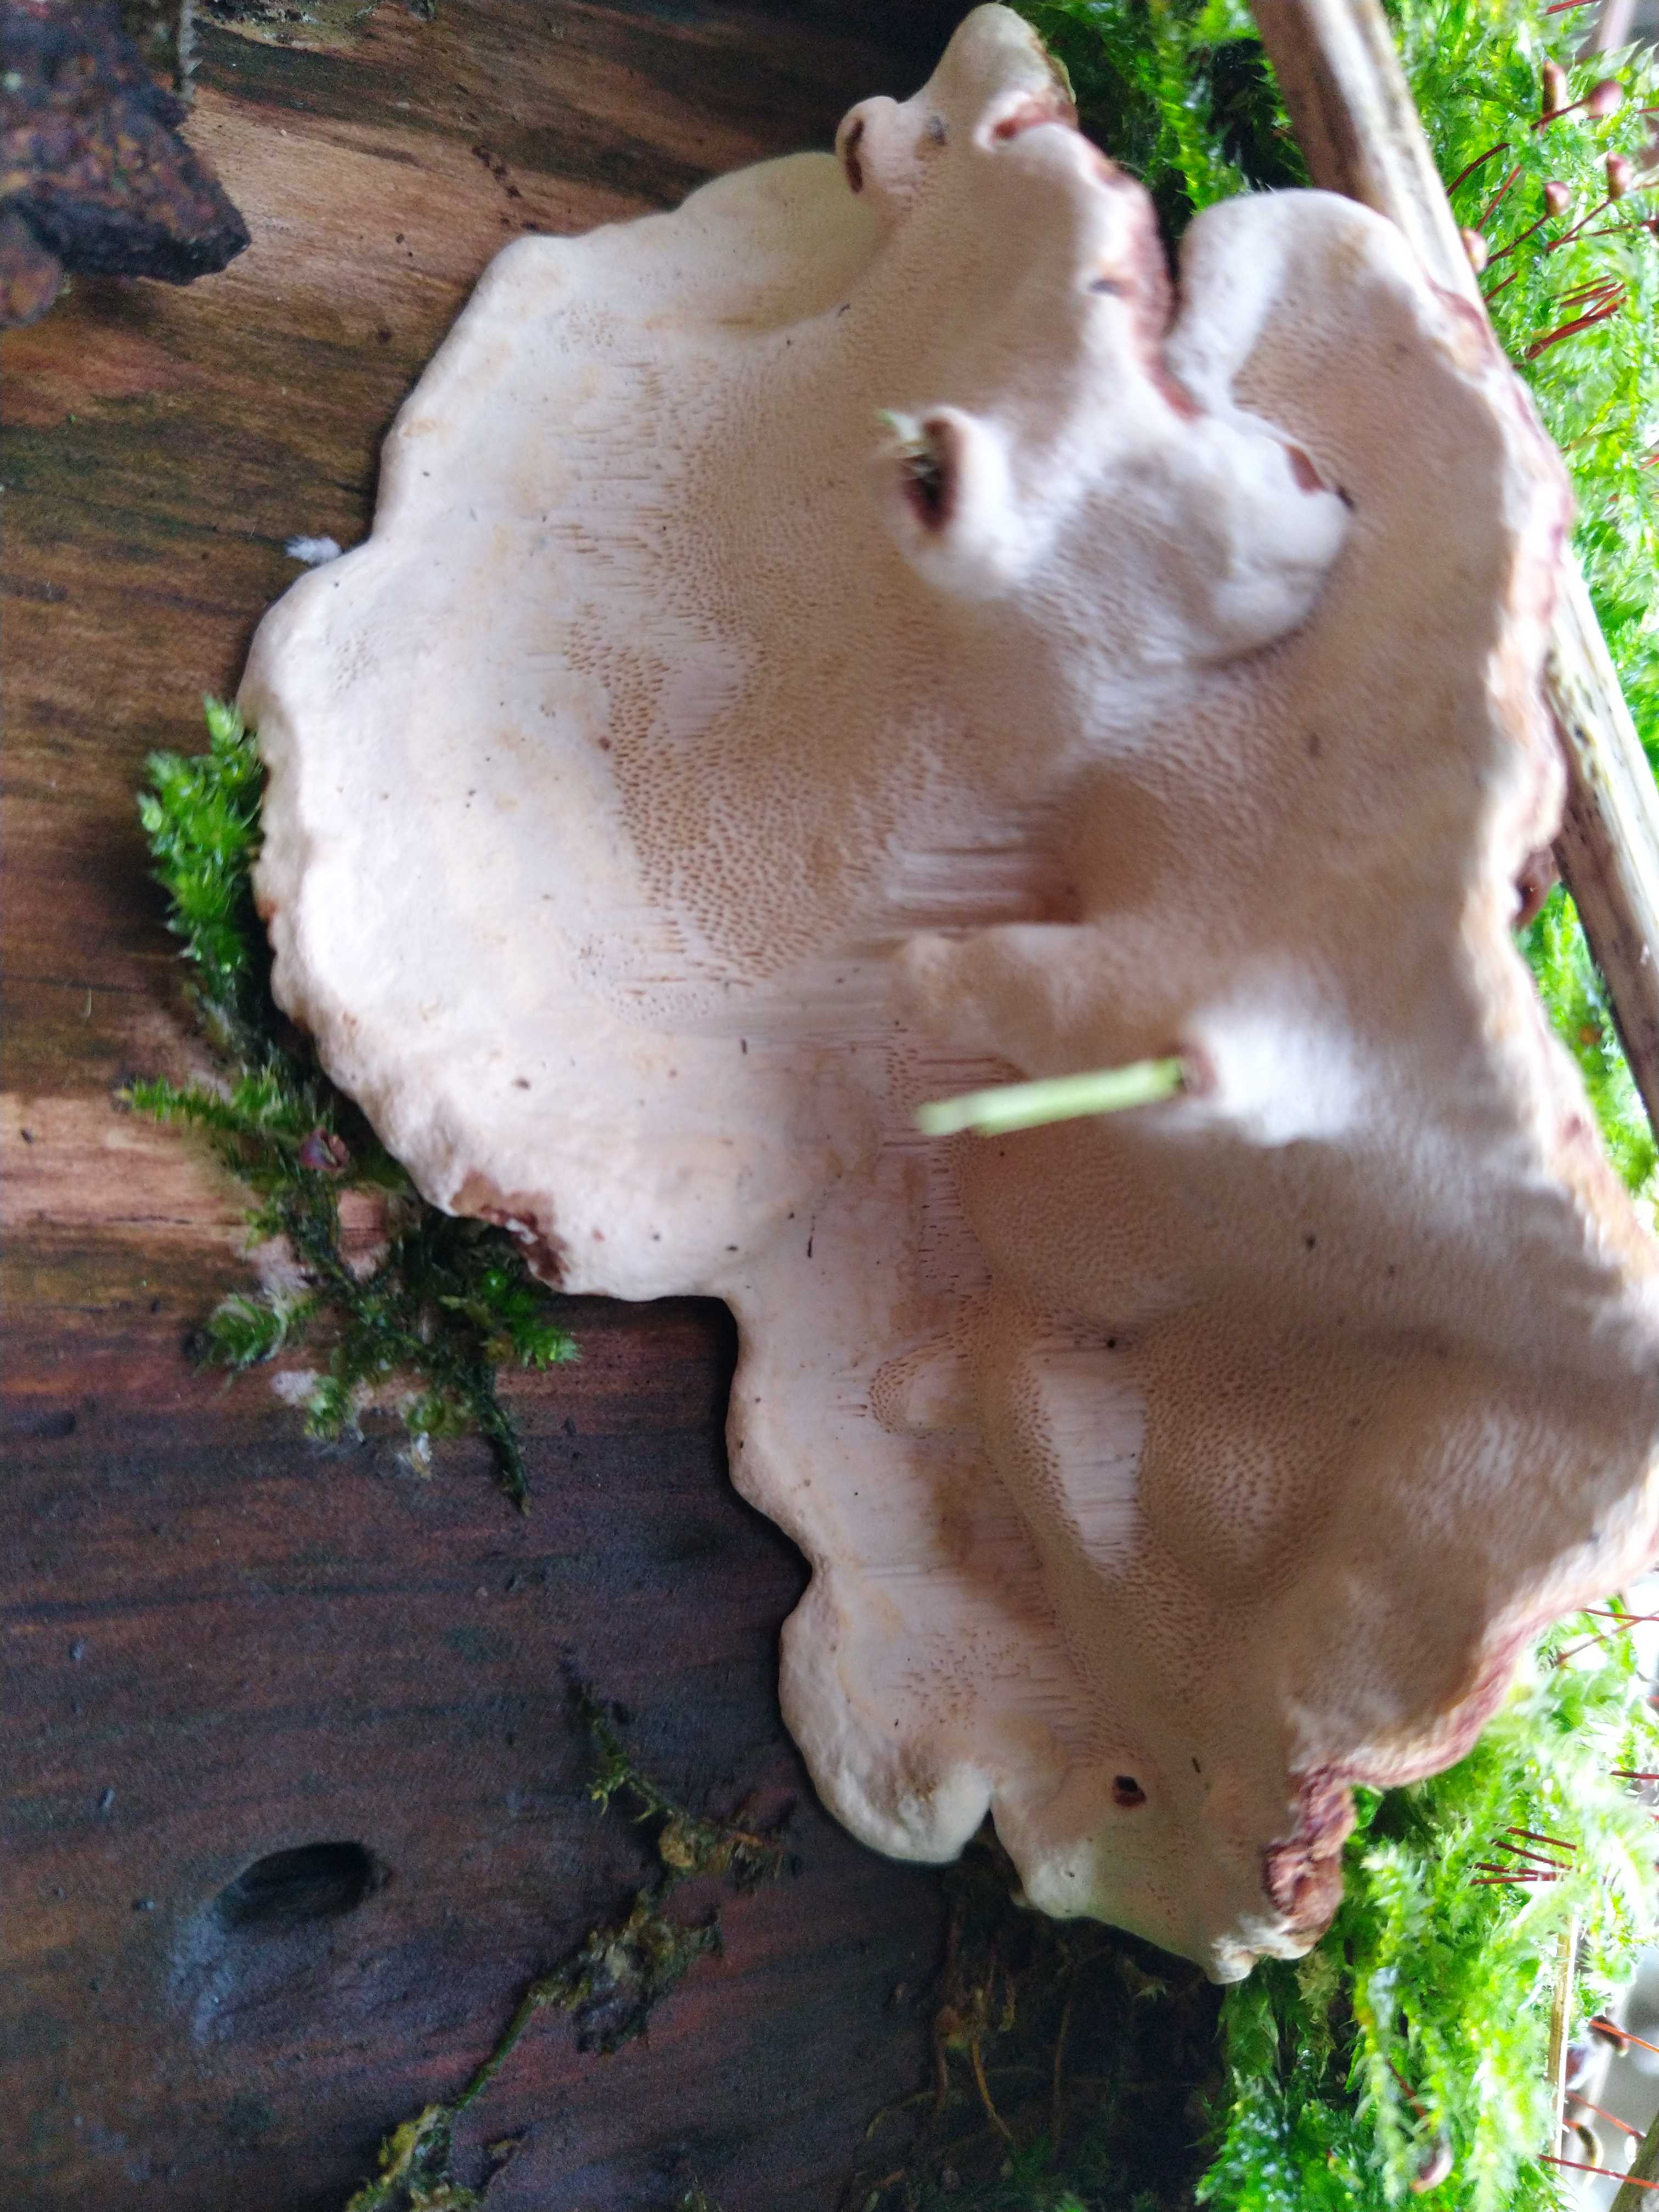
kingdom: Fungi
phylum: Basidiomycota
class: Agaricomycetes
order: Russulales
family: Bondarzewiaceae
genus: Heterobasidion
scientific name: Heterobasidion
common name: rodfordærver
